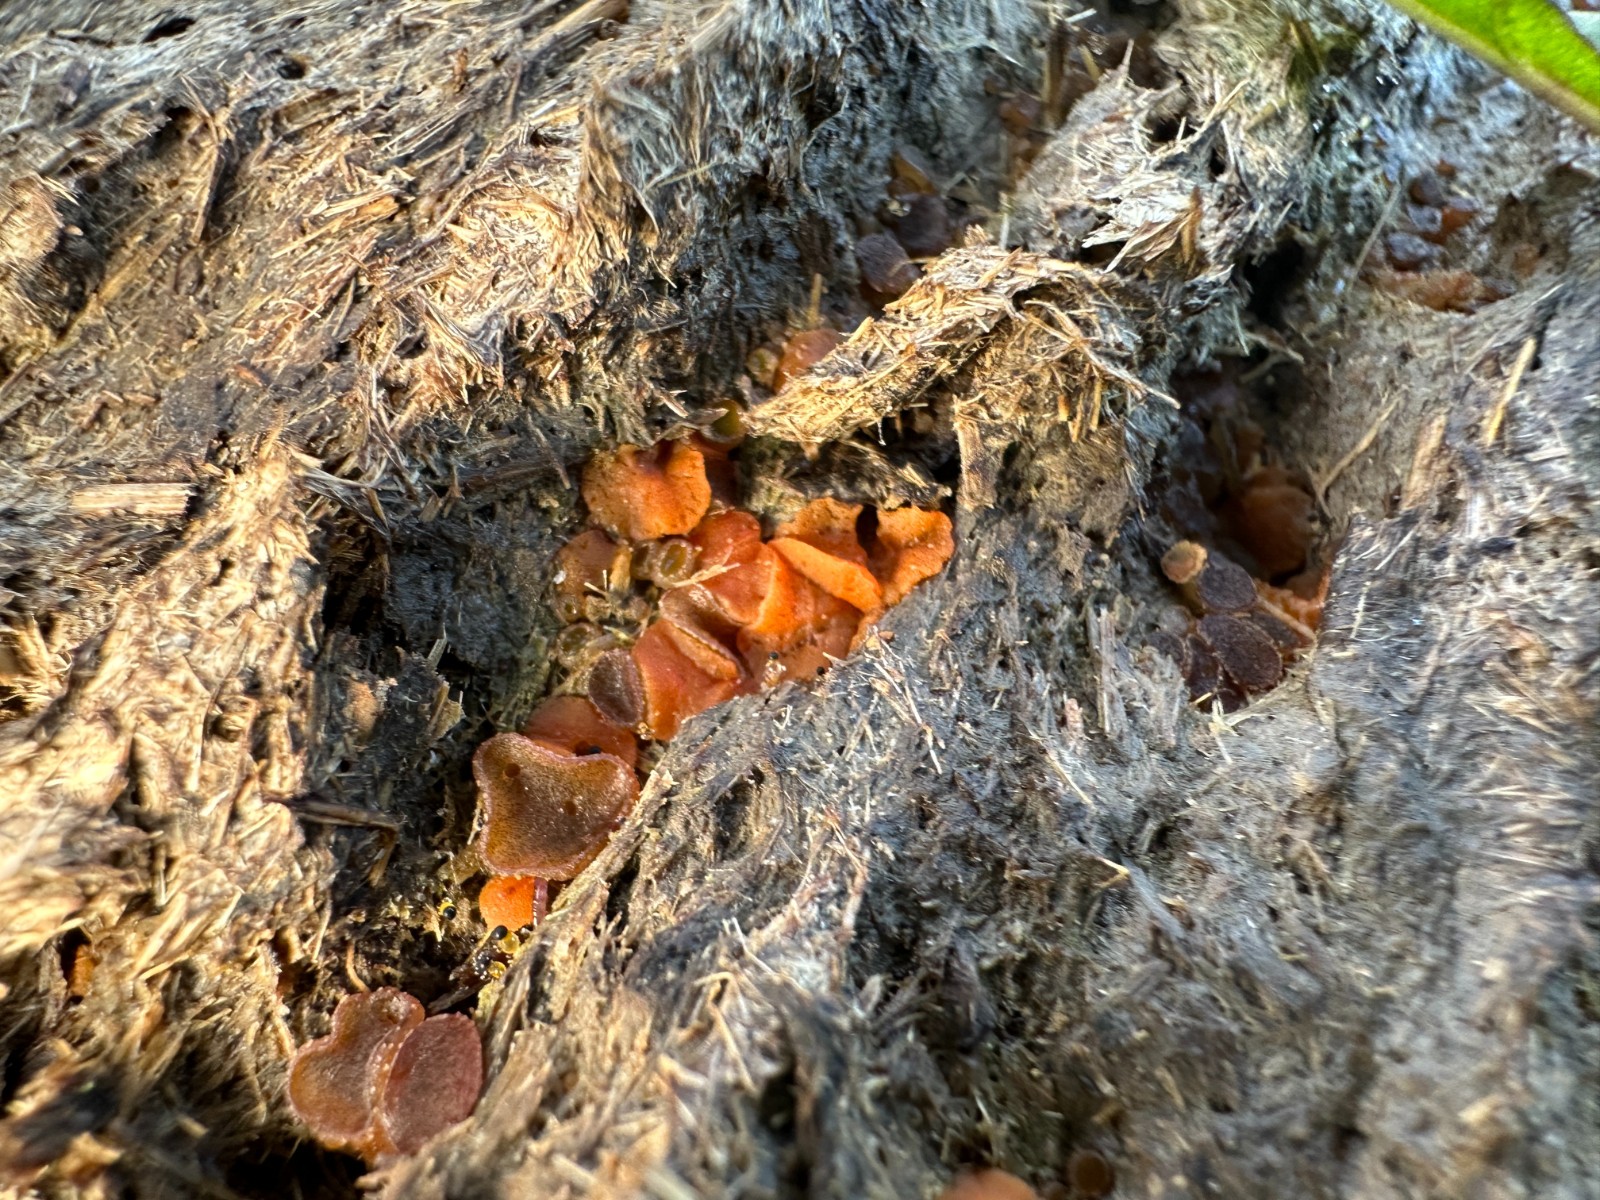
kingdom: Fungi
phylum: Ascomycota
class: Pezizomycetes
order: Pezizales
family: Pyronemataceae
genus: Cheilymenia
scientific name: Cheilymenia granulata
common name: møgbæger
